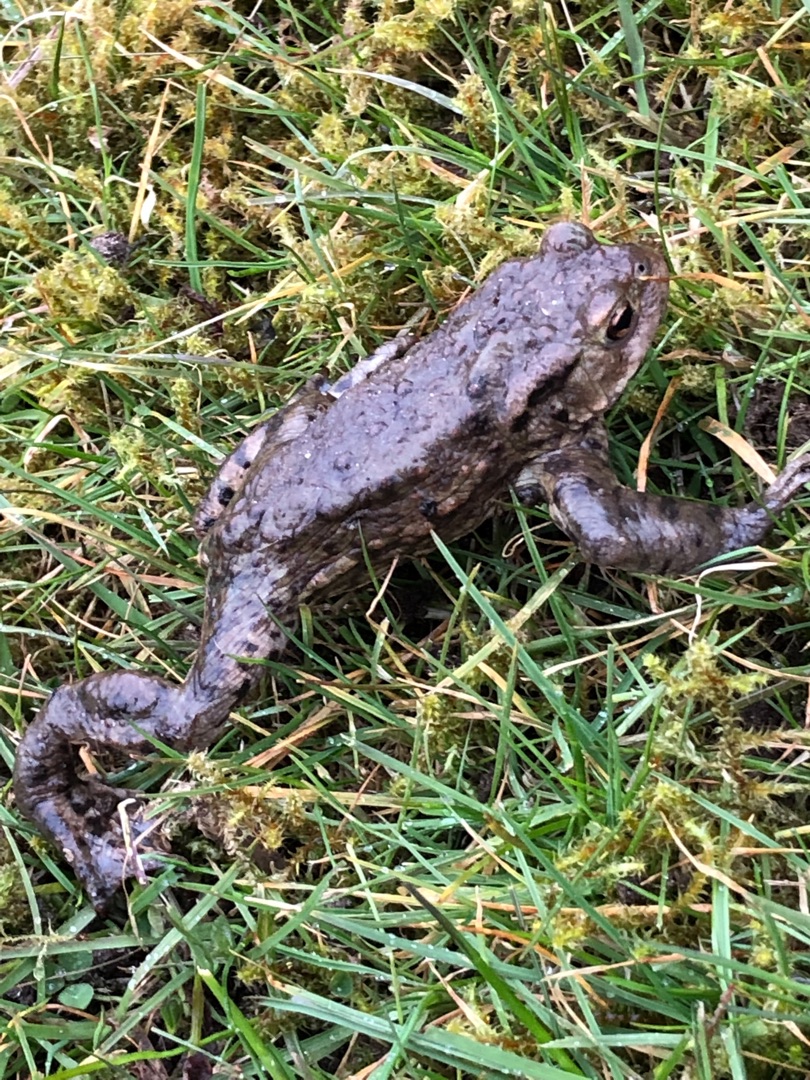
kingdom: Animalia
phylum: Chordata
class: Amphibia
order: Anura
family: Bufonidae
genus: Bufo
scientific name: Bufo bufo
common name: Skrubtudse
